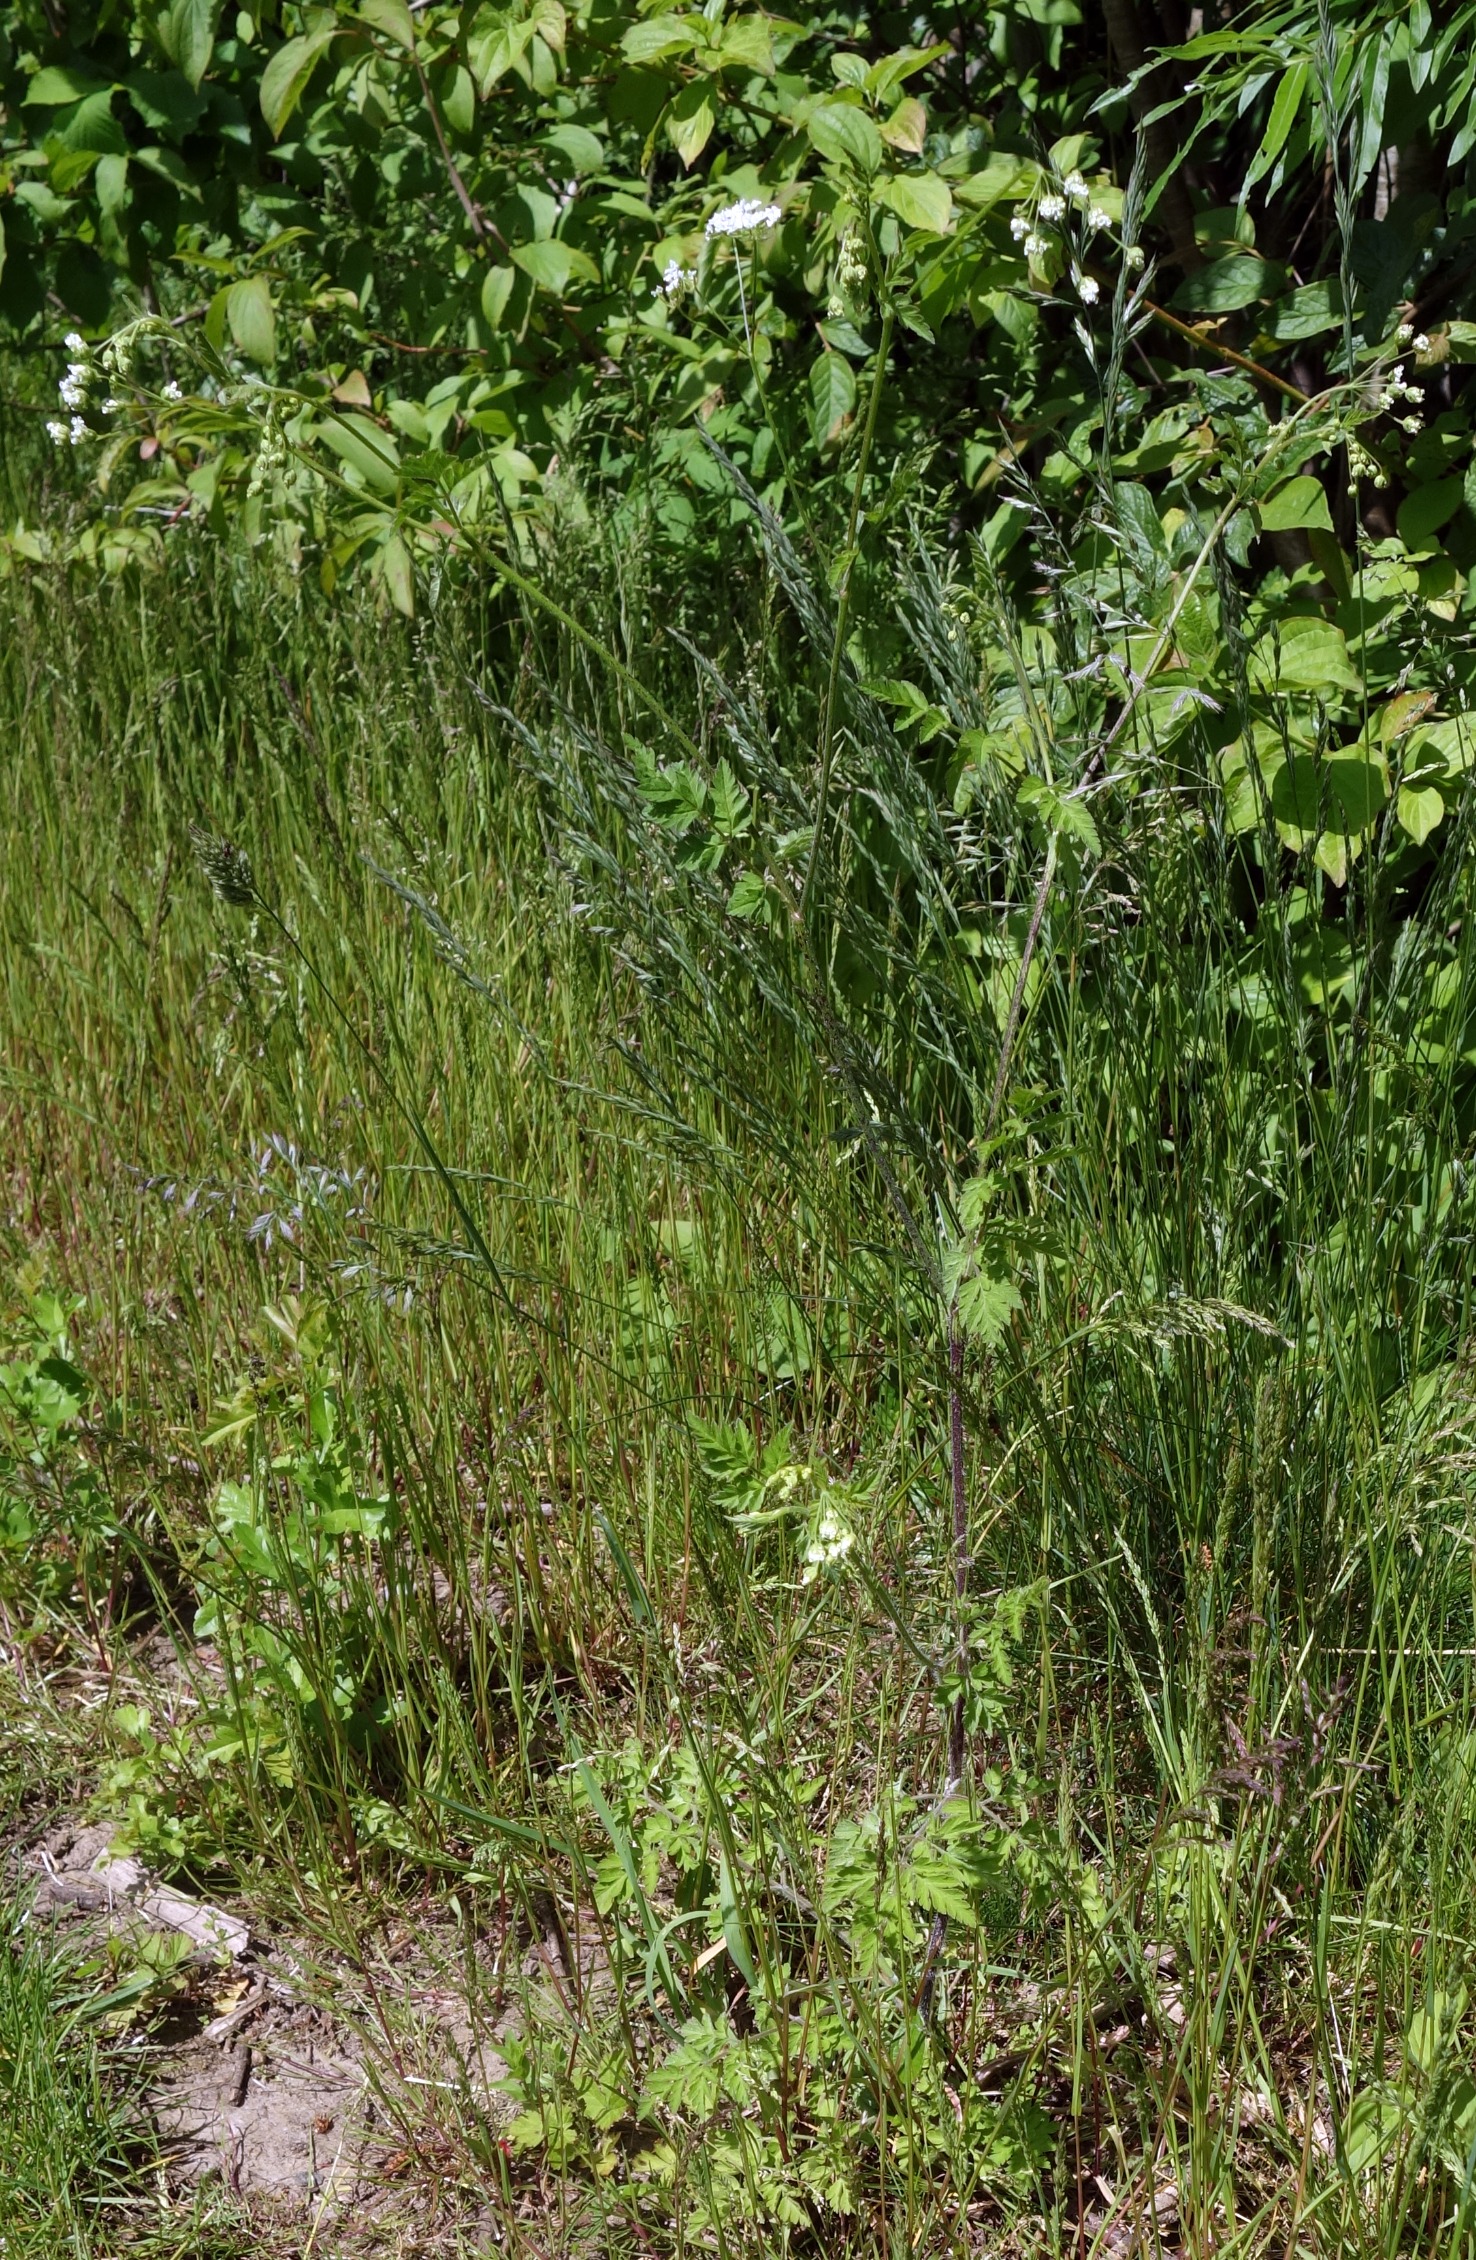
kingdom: Plantae
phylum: Tracheophyta
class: Magnoliopsida
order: Apiales
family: Apiaceae
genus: Chaerophyllum
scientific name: Chaerophyllum temulum
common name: Almindelig hulsvøb
